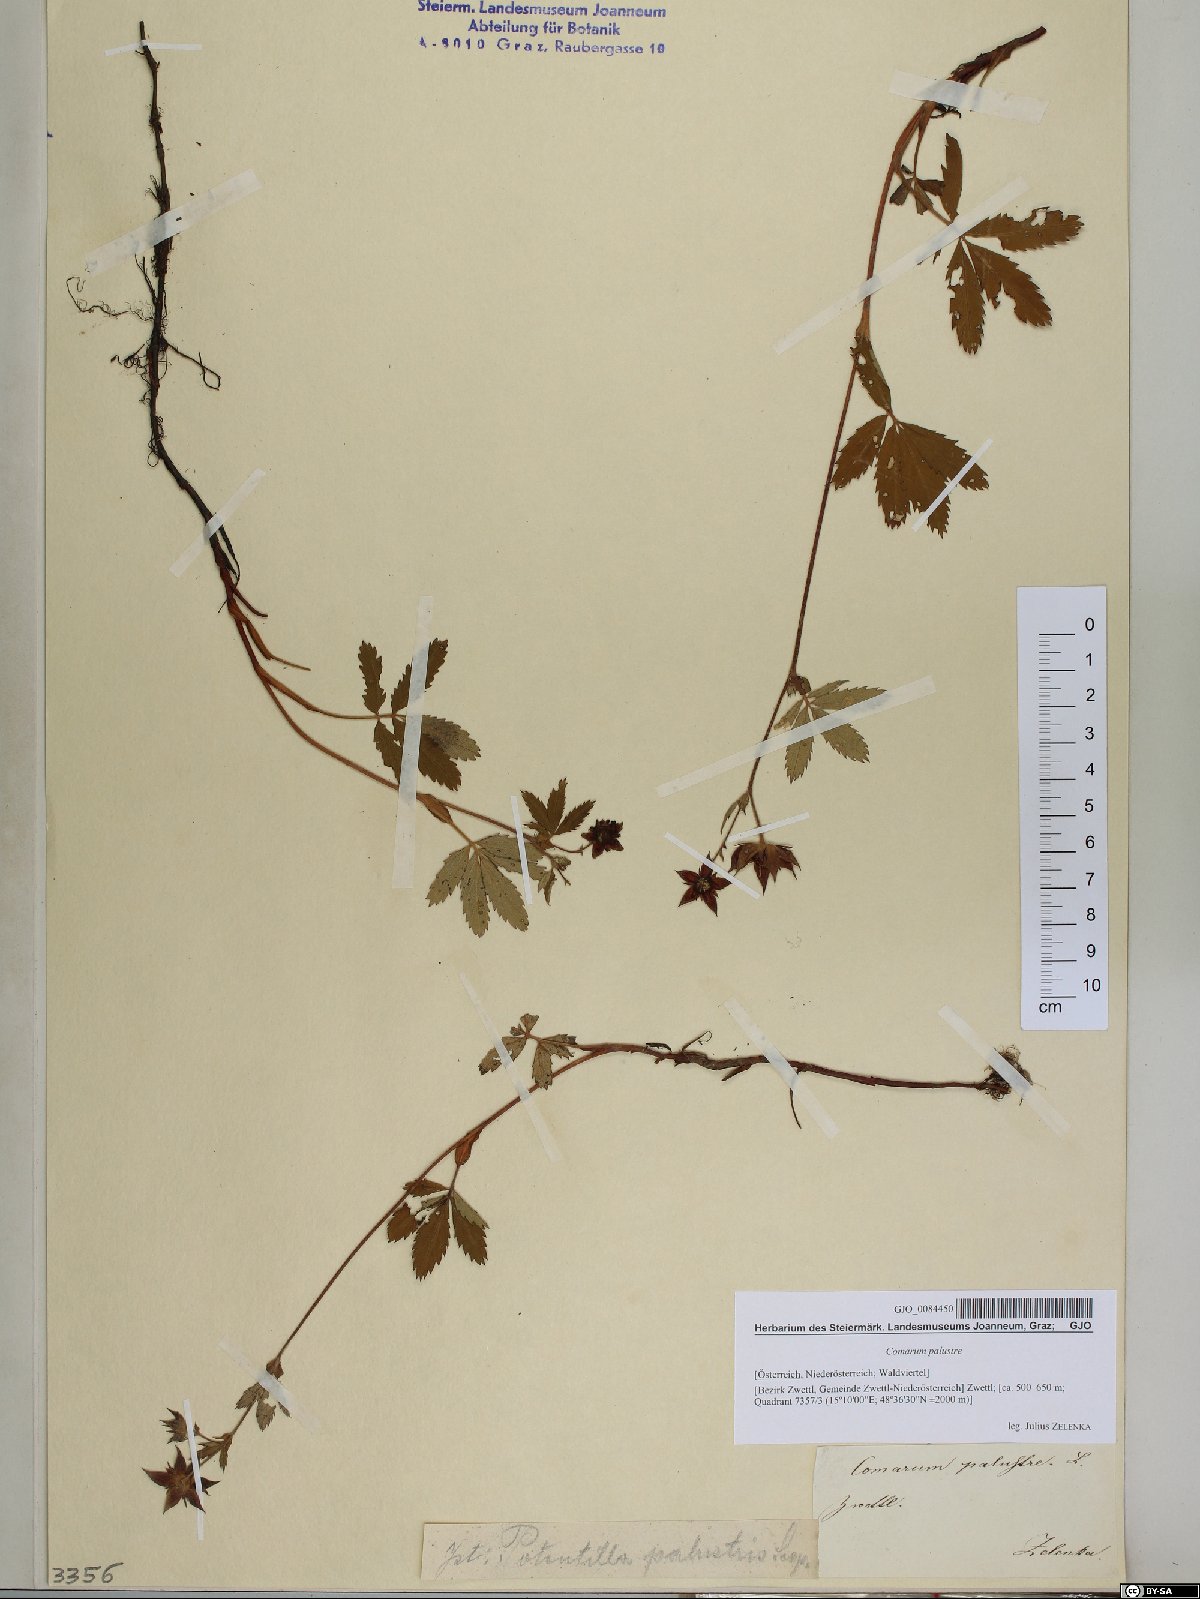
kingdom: Plantae
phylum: Tracheophyta
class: Magnoliopsida
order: Rosales
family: Rosaceae
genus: Comarum
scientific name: Comarum palustre
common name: Marsh cinquefoil
